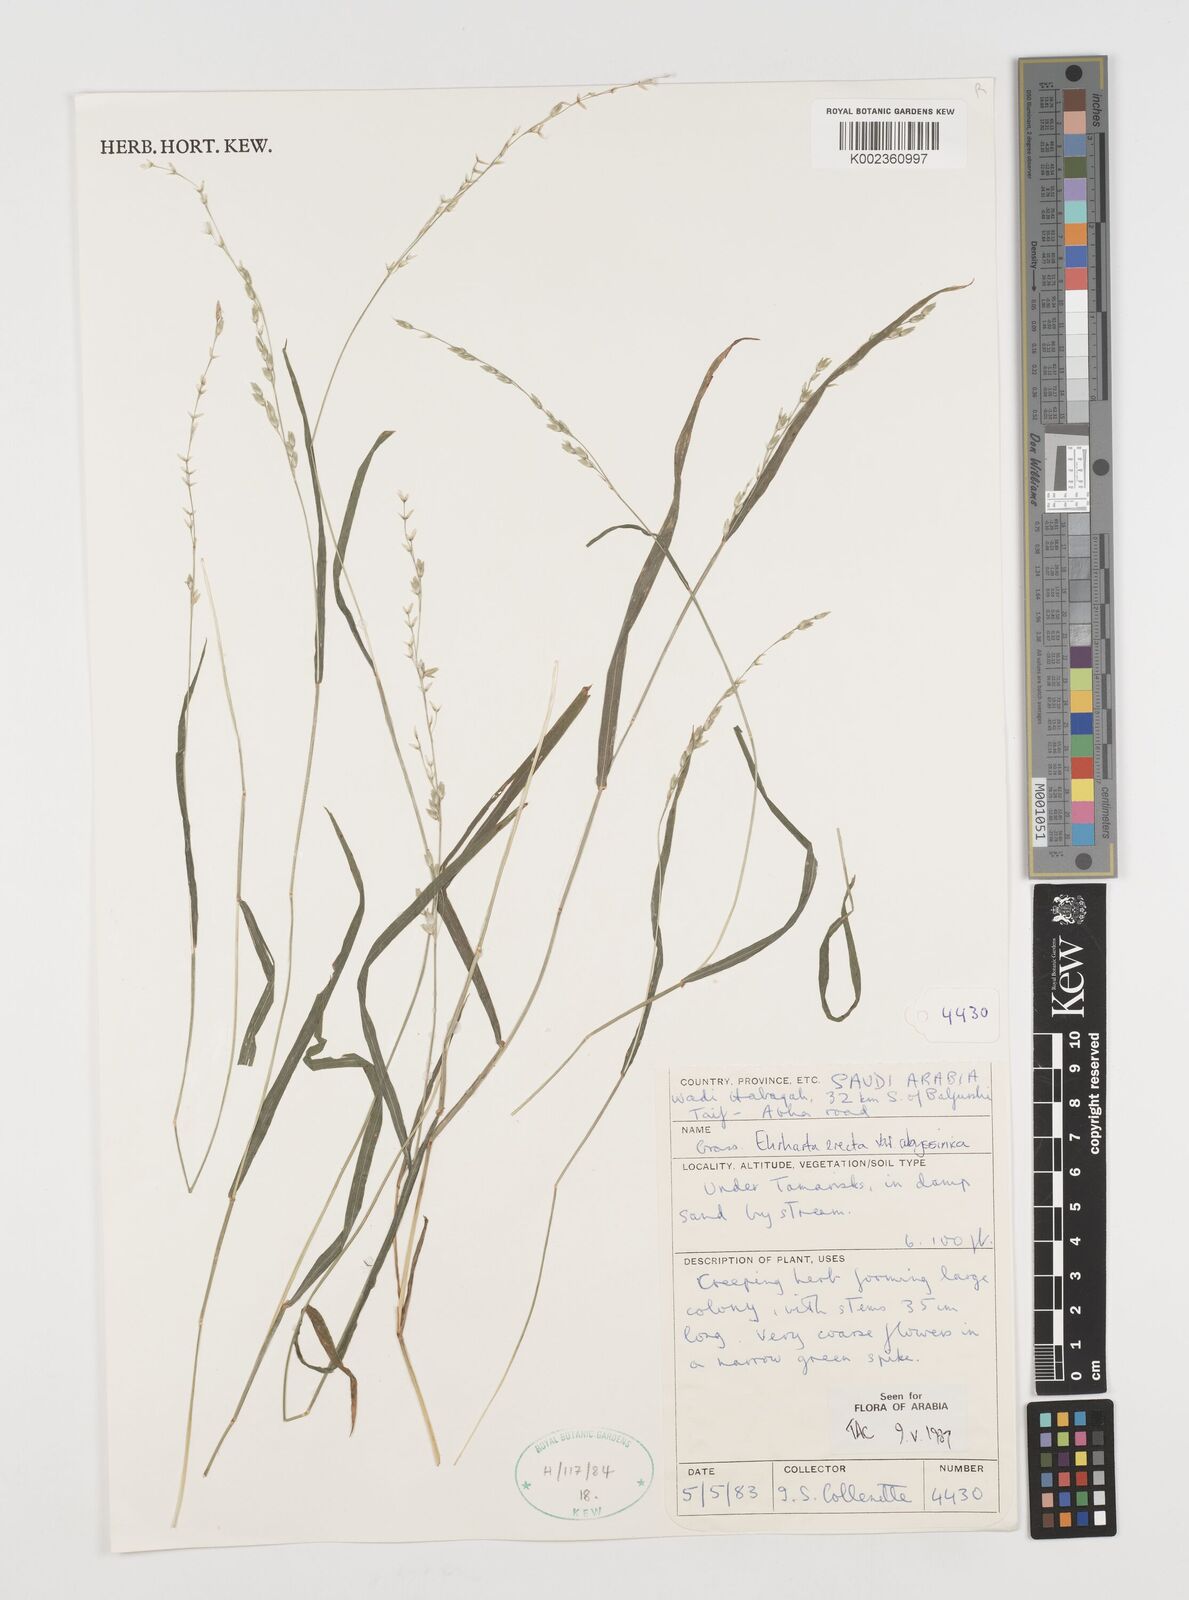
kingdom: Plantae
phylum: Tracheophyta
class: Liliopsida
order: Poales
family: Poaceae
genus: Ehrharta
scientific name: Ehrharta erecta
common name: Panic veldtgrass
